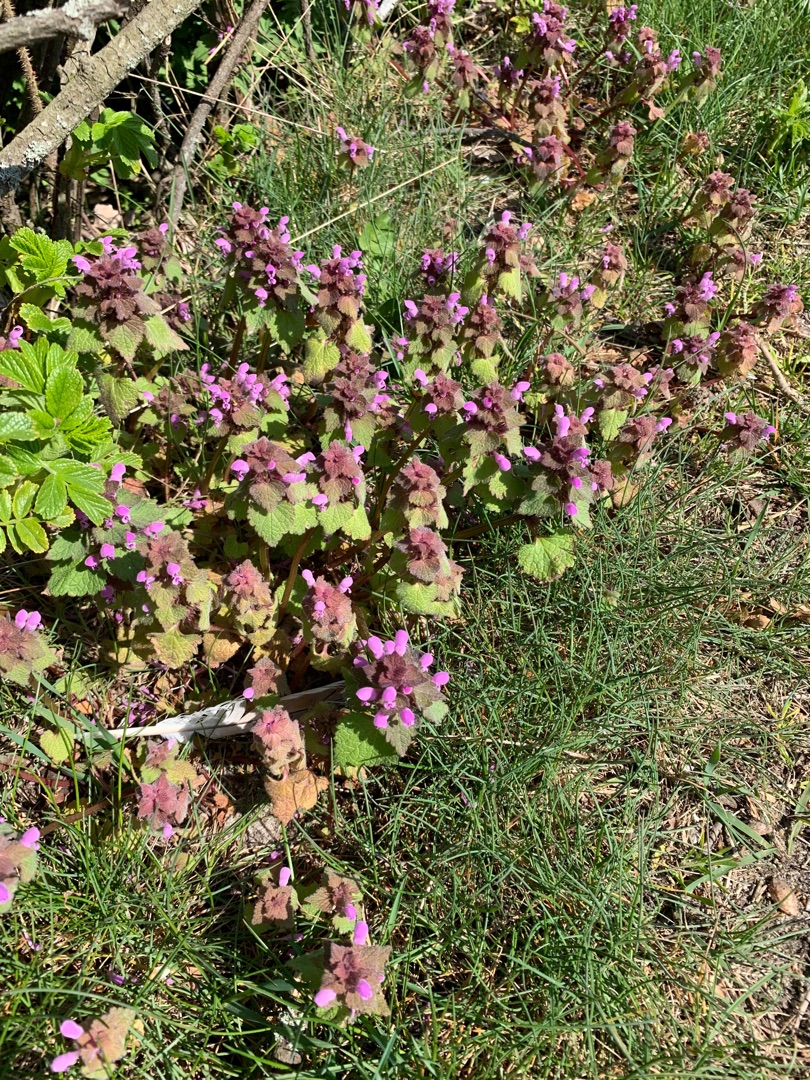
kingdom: Plantae
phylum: Tracheophyta
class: Magnoliopsida
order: Lamiales
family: Lamiaceae
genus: Lamium
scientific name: Lamium purpureum
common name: Rød tvetand
